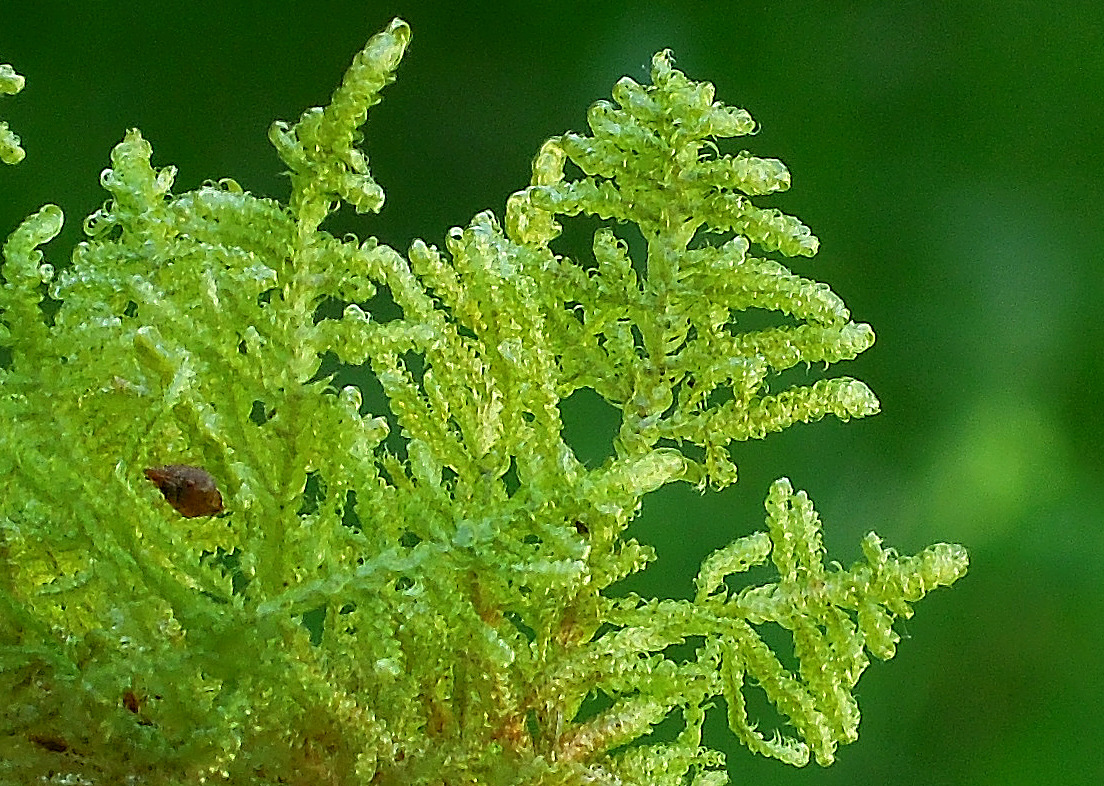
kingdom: Plantae
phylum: Bryophyta
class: Bryopsida
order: Hypnales
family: Hypnaceae
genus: Hypnum
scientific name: Hypnum jutlandicum
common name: Hede-cypresmos
